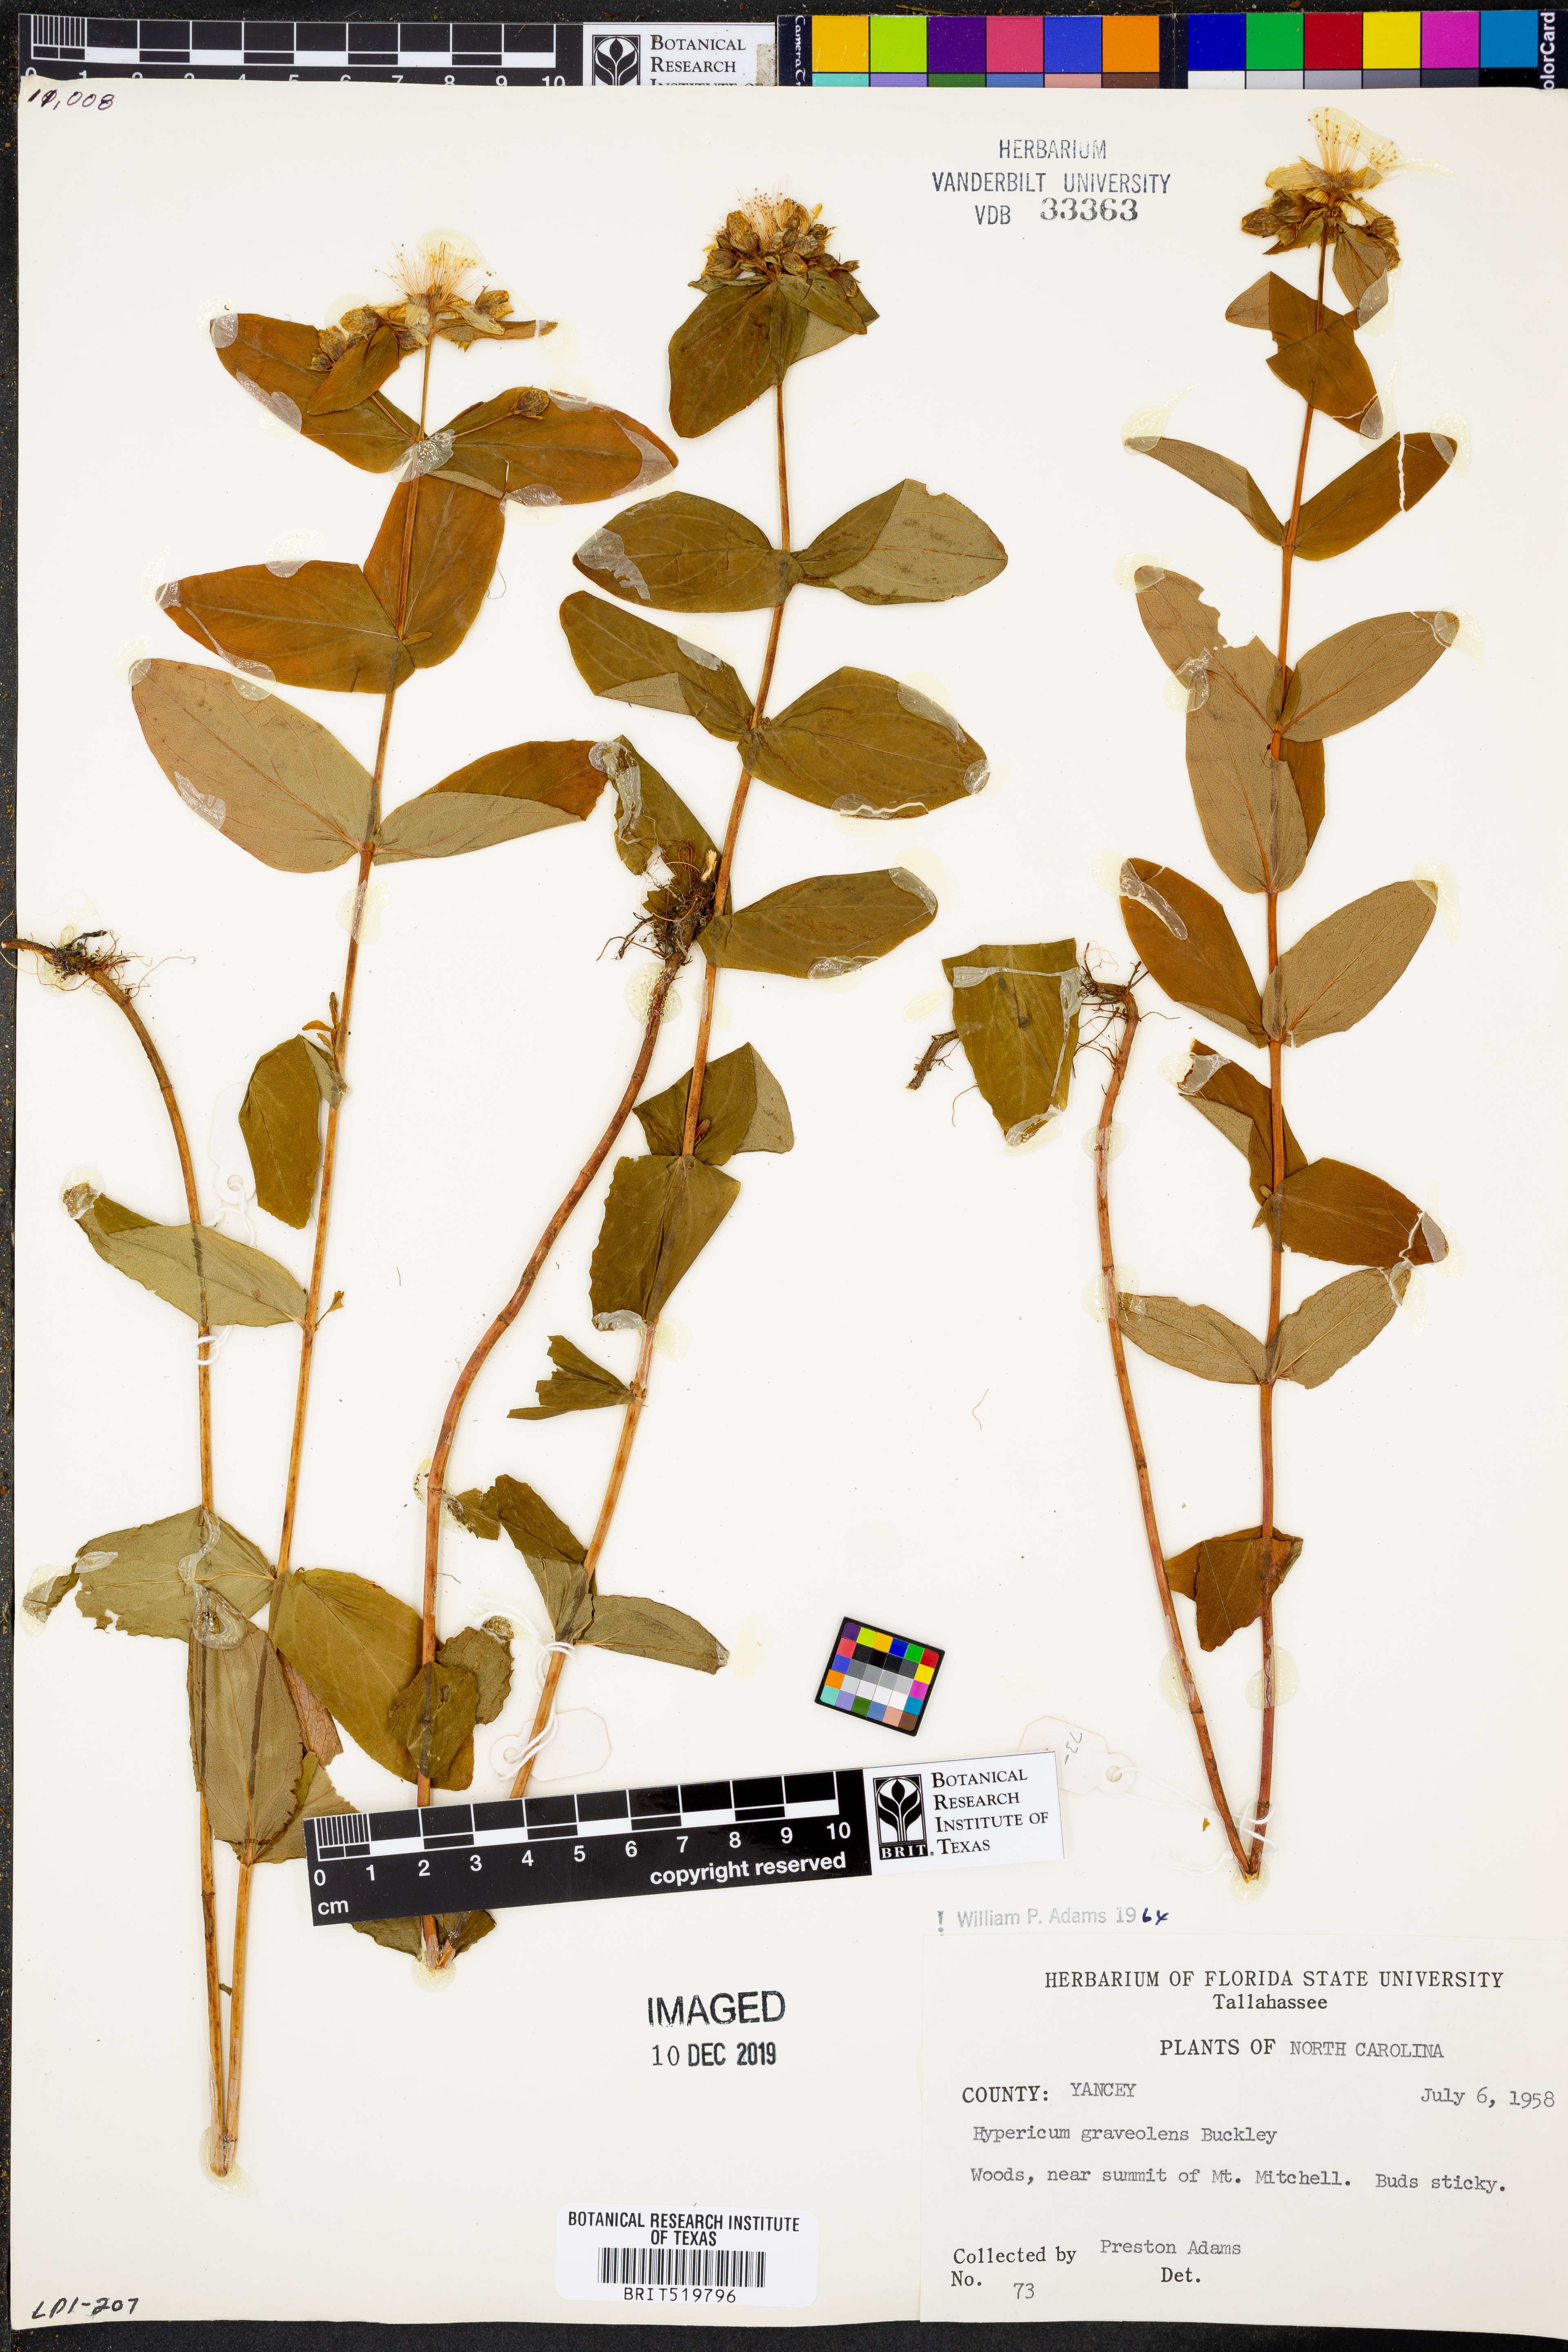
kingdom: Plantae
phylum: Tracheophyta
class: Magnoliopsida
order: Malpighiales
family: Hypericaceae
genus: Hypericum
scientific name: Hypericum graveolens
